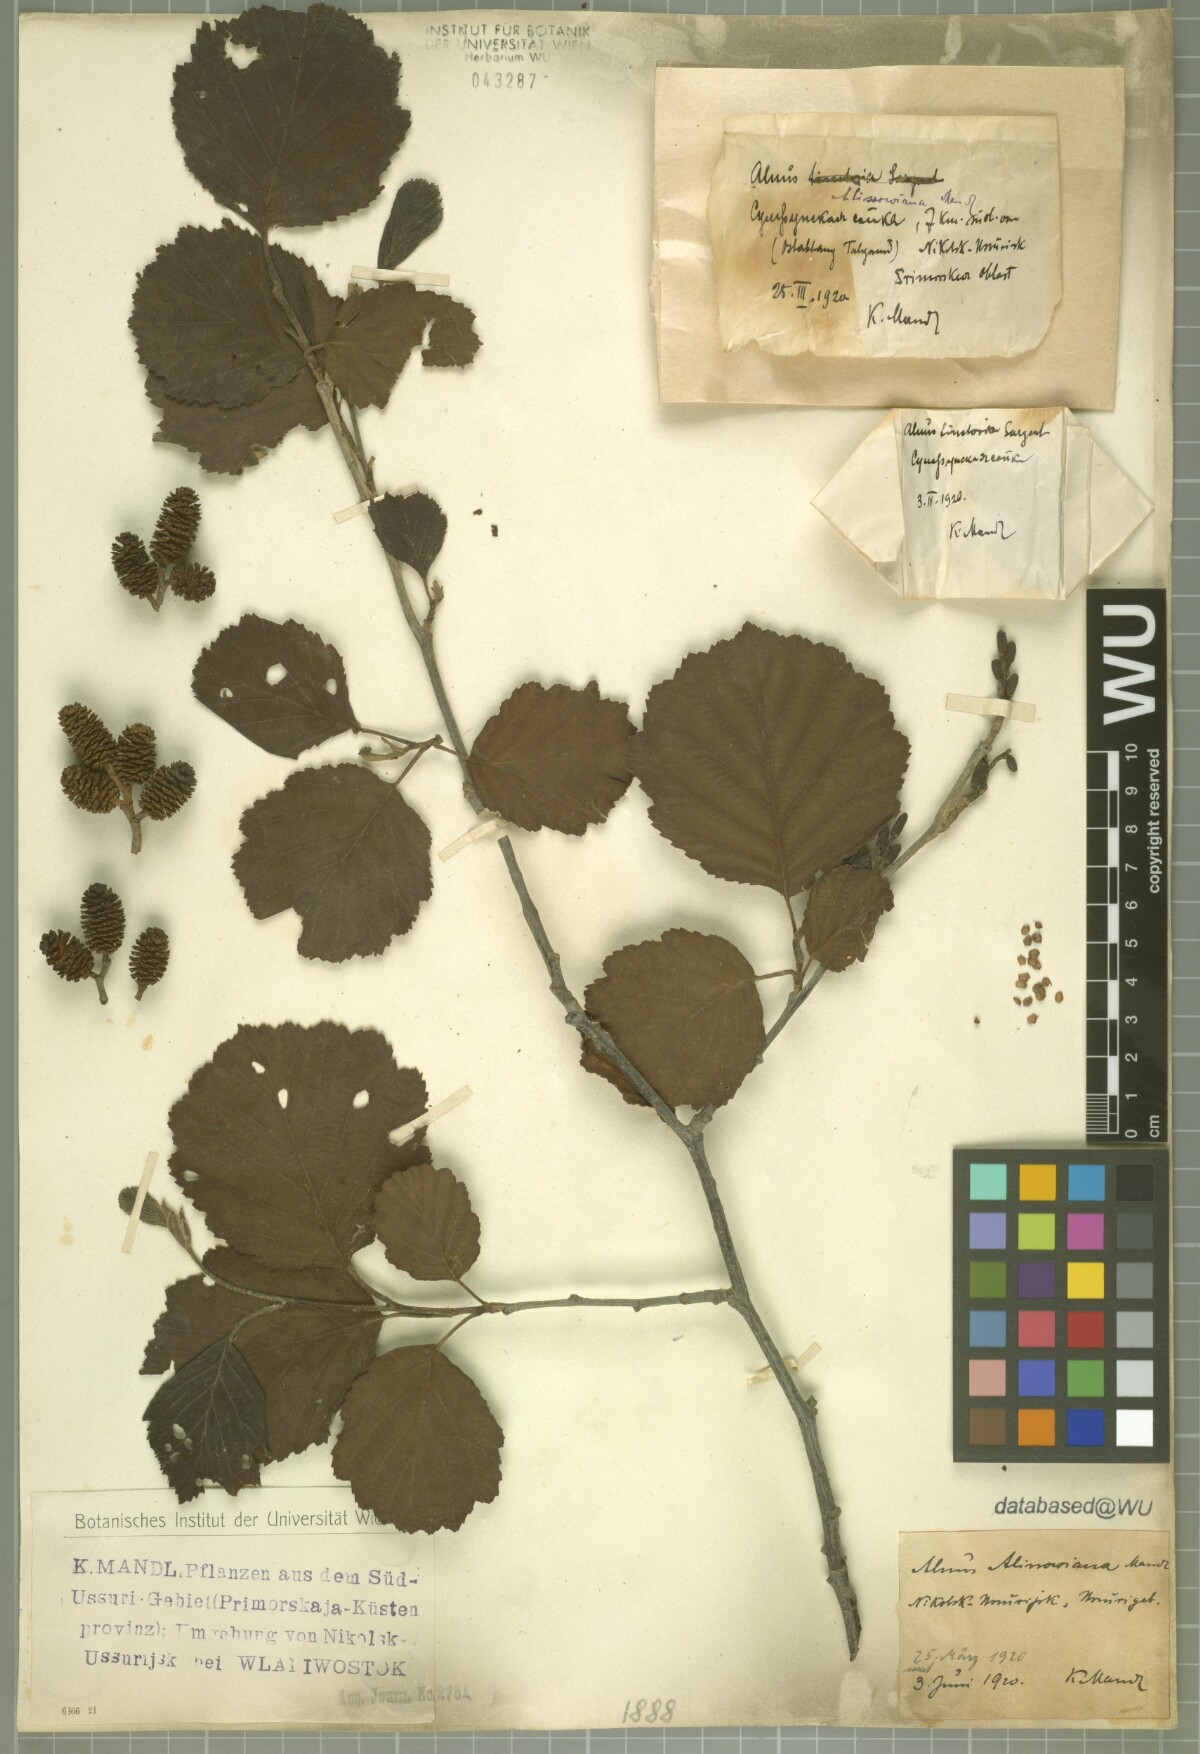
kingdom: Plantae
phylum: Tracheophyta
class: Magnoliopsida
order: Fagales
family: Betulaceae
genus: Alnus
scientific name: Alnus incana
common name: Grey alder
